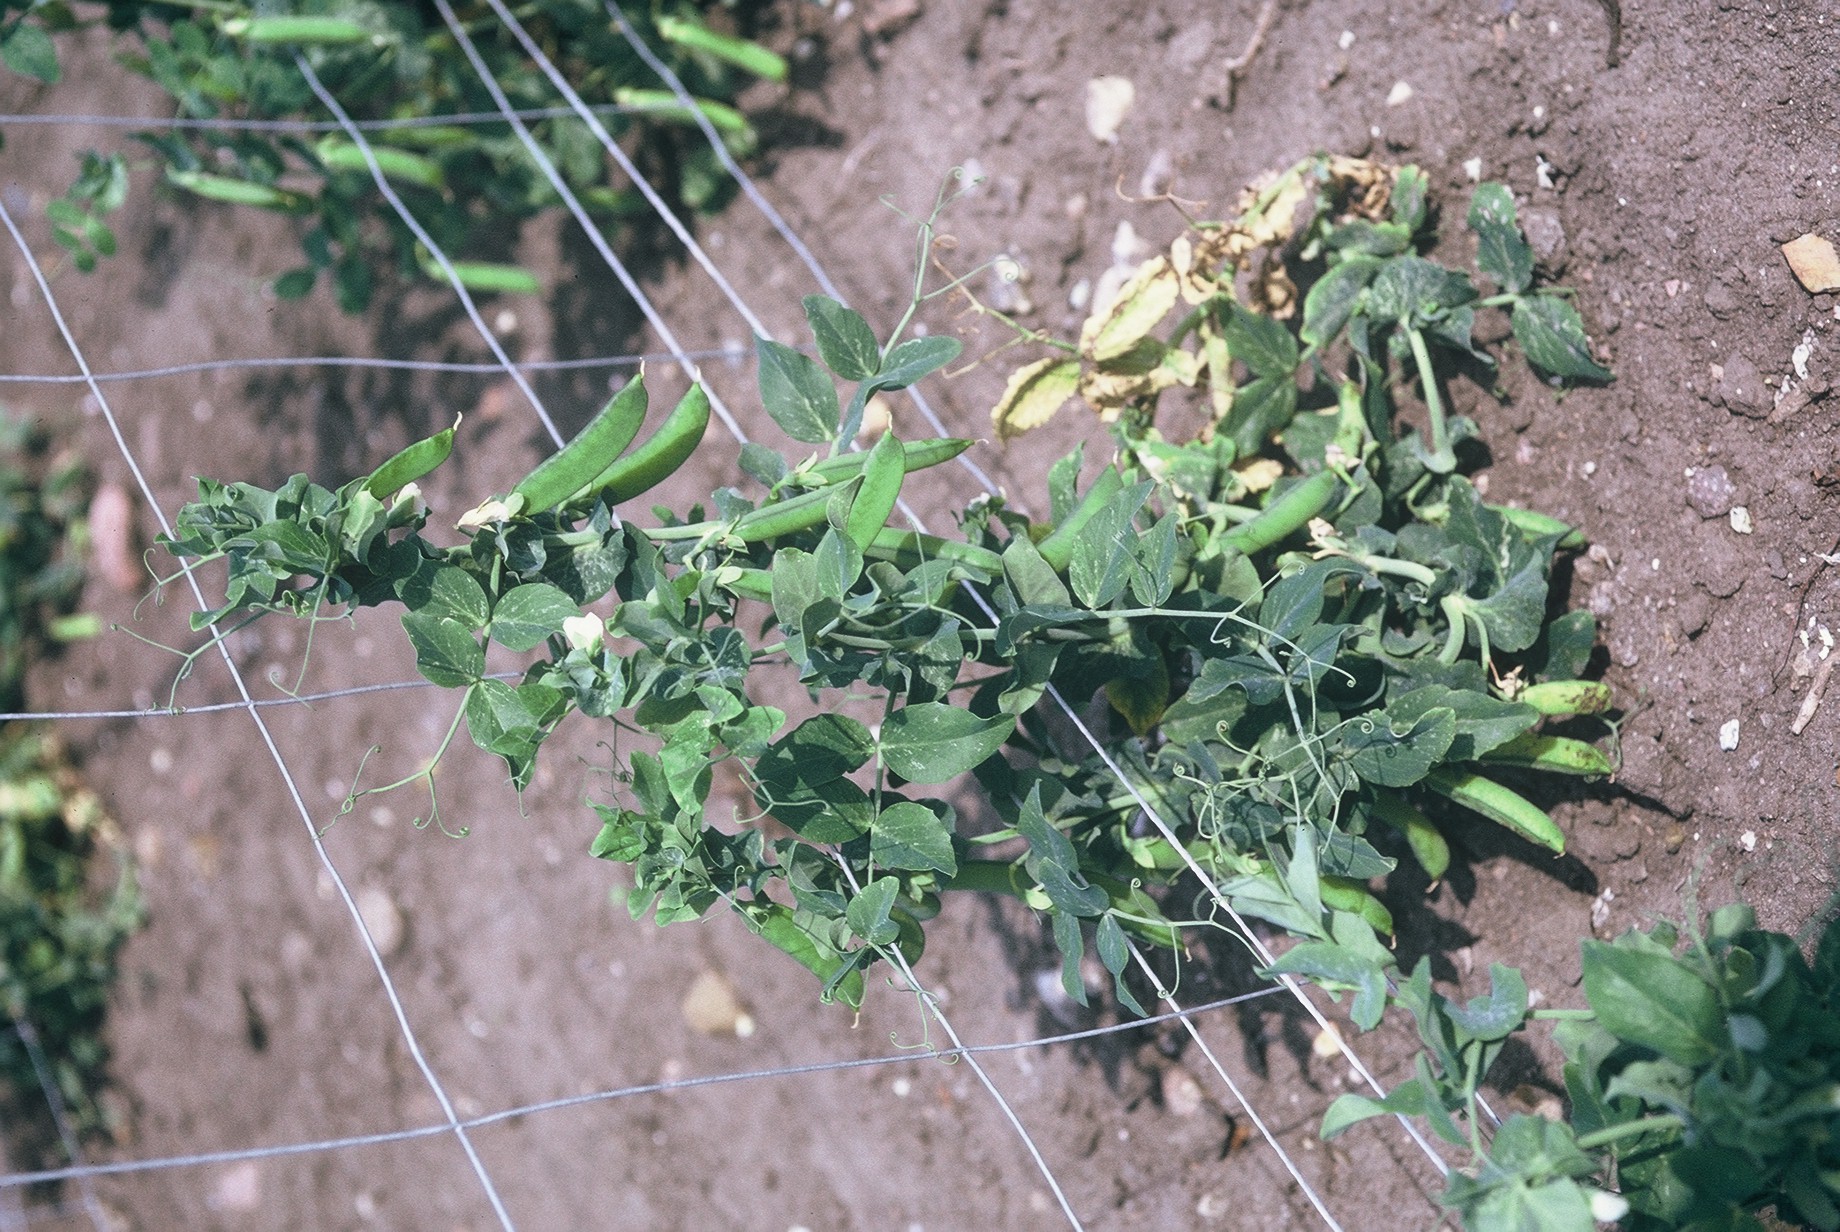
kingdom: Plantae
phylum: Tracheophyta
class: Magnoliopsida
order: Fabales
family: Fabaceae
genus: Lathyrus
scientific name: Lathyrus oleraceus
